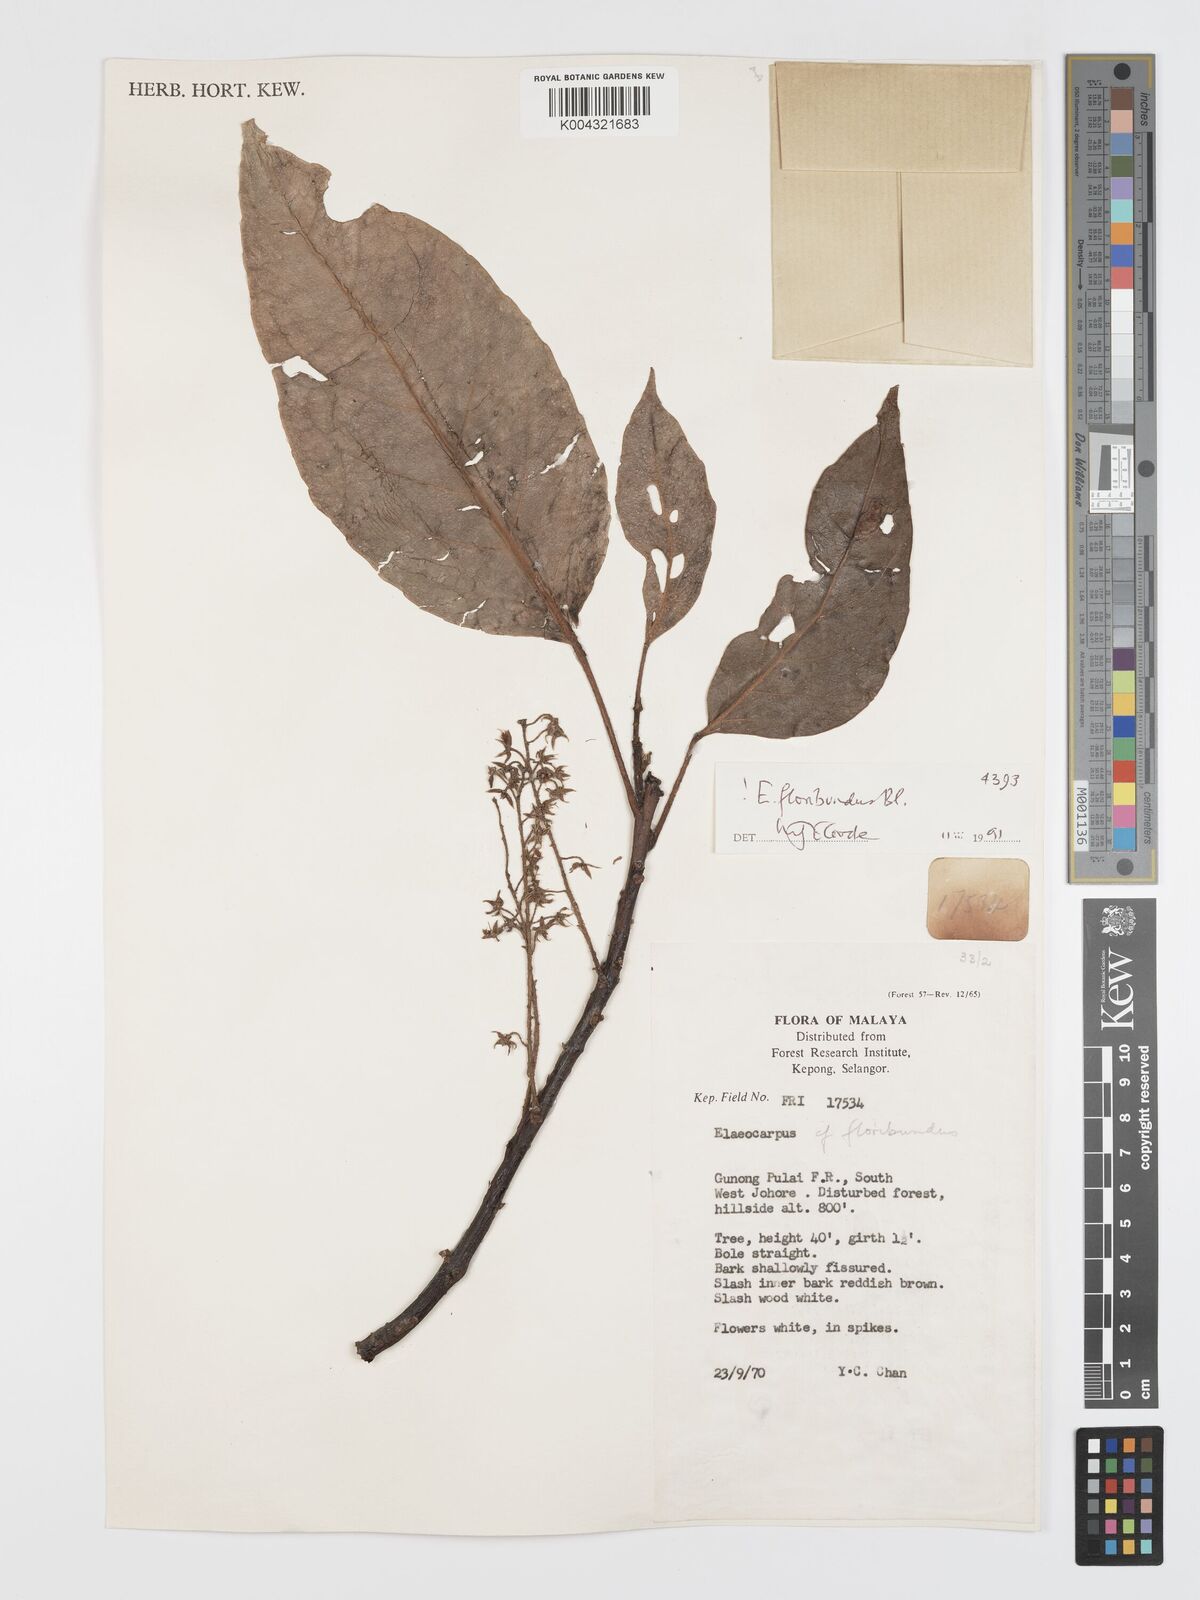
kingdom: Plantae
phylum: Tracheophyta
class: Magnoliopsida
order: Oxalidales
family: Elaeocarpaceae
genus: Elaeocarpus
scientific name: Elaeocarpus floribundus
